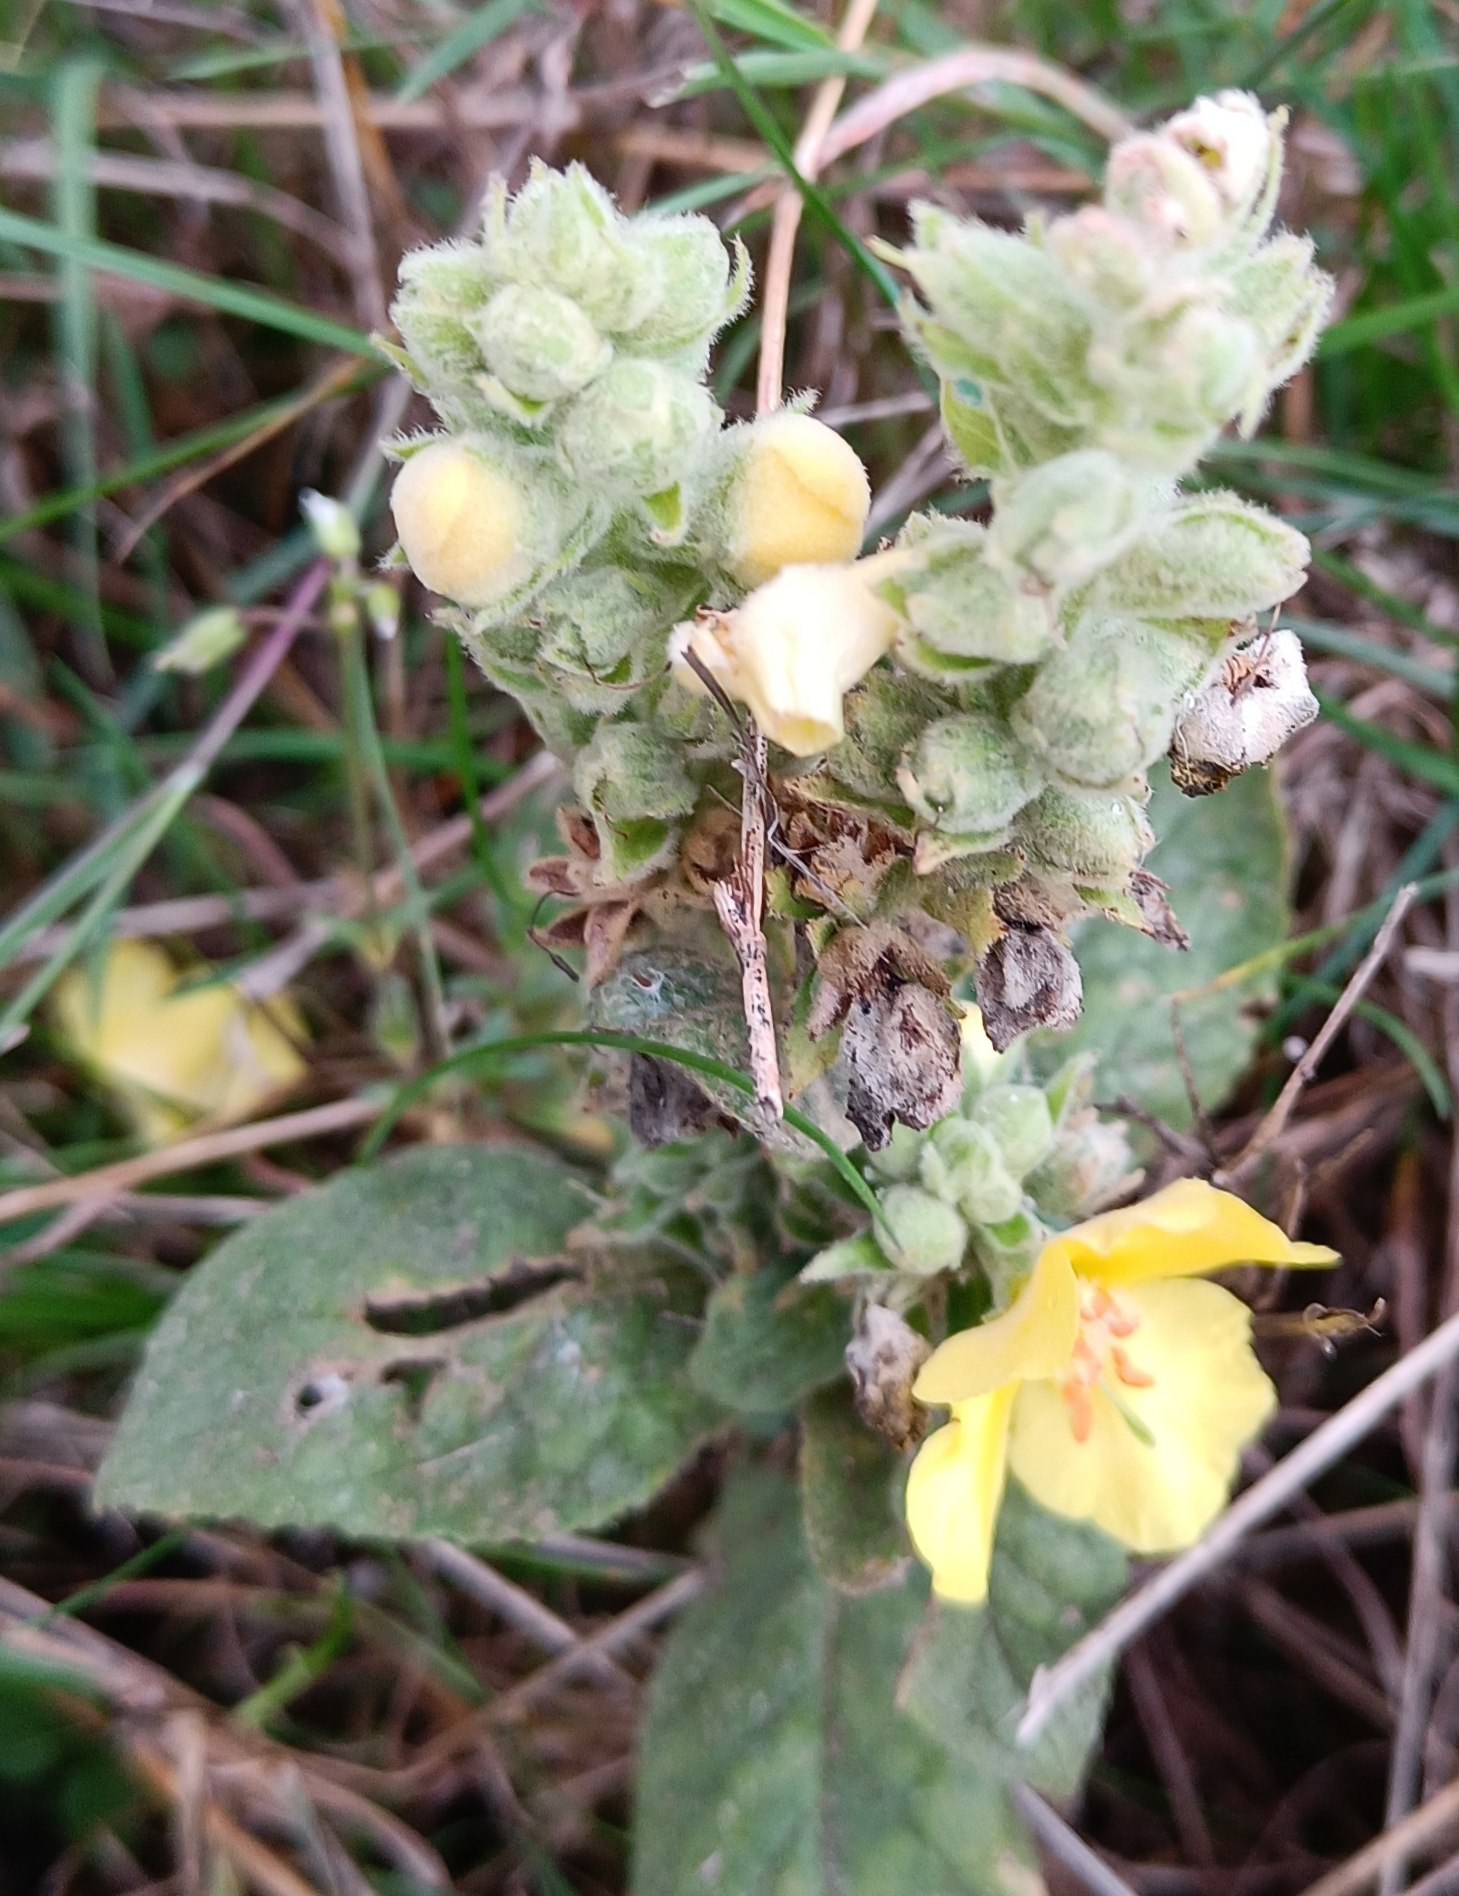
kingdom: Plantae
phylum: Tracheophyta
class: Magnoliopsida
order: Lamiales
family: Scrophulariaceae
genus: Verbascum
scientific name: Verbascum densiflorum
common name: Uldbladet kongelys
